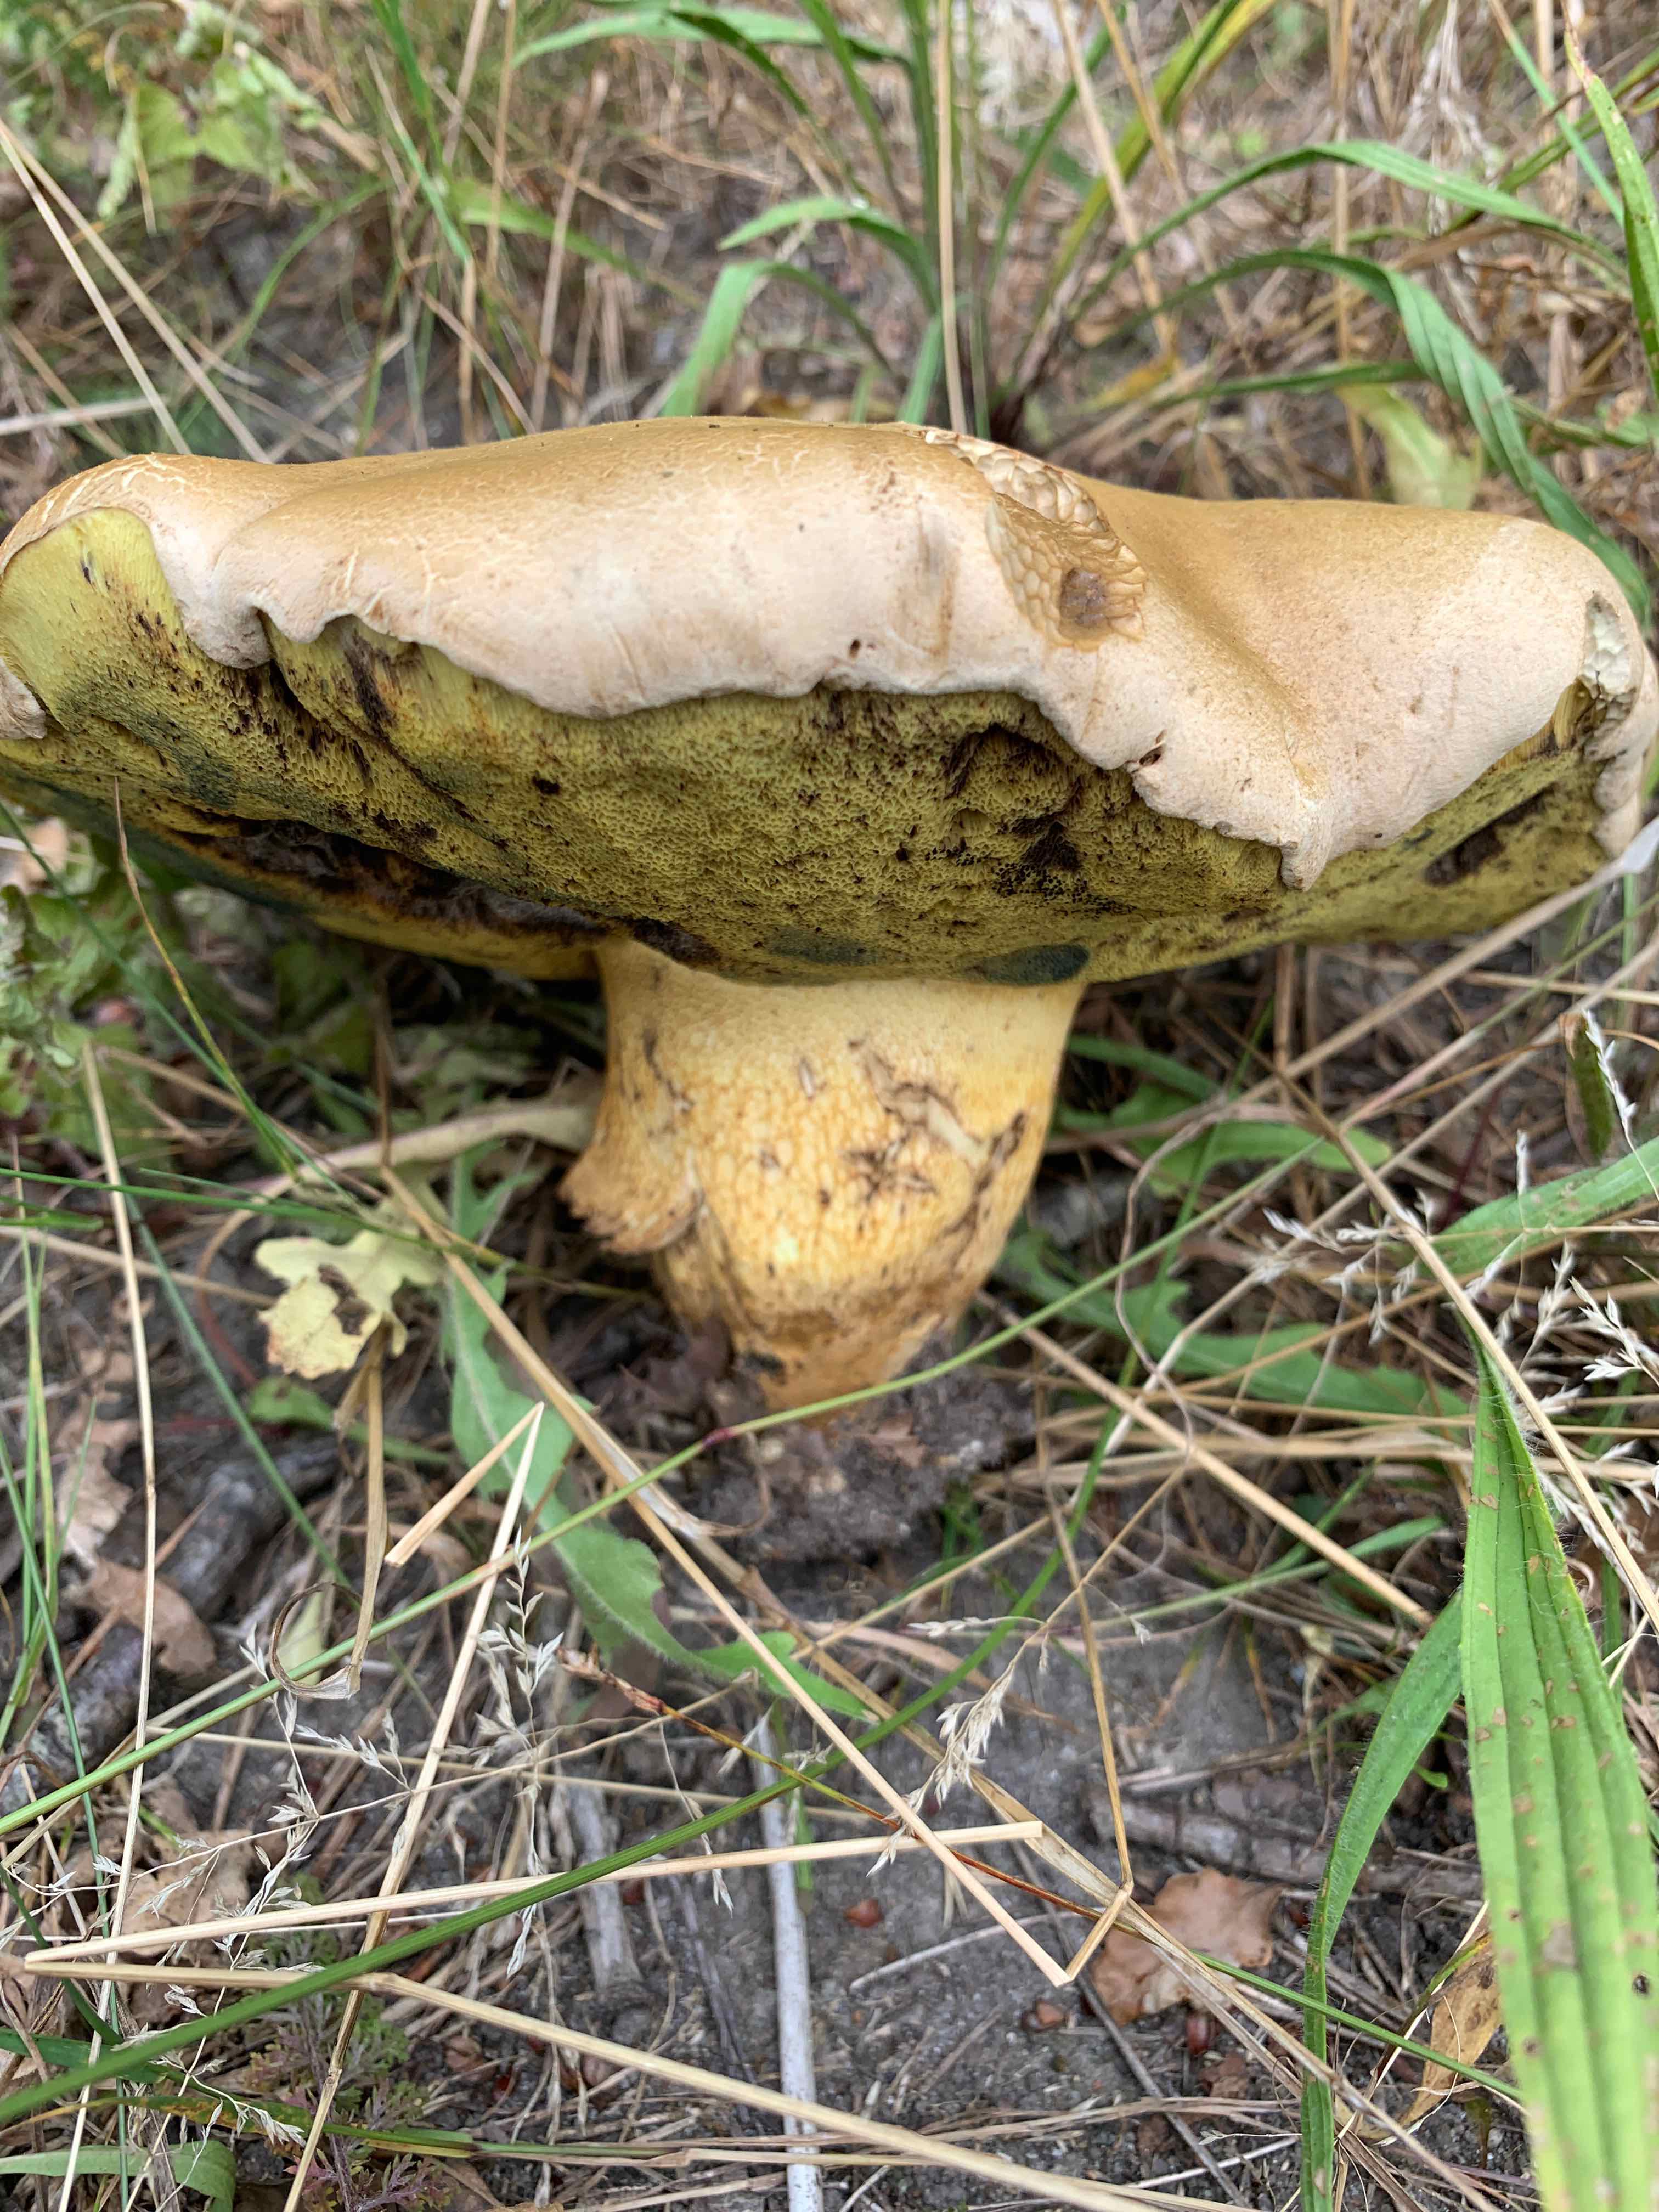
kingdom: Fungi
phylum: Basidiomycota
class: Agaricomycetes
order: Boletales
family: Boletaceae
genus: Caloboletus
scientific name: Caloboletus radicans
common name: rod-rørhat
